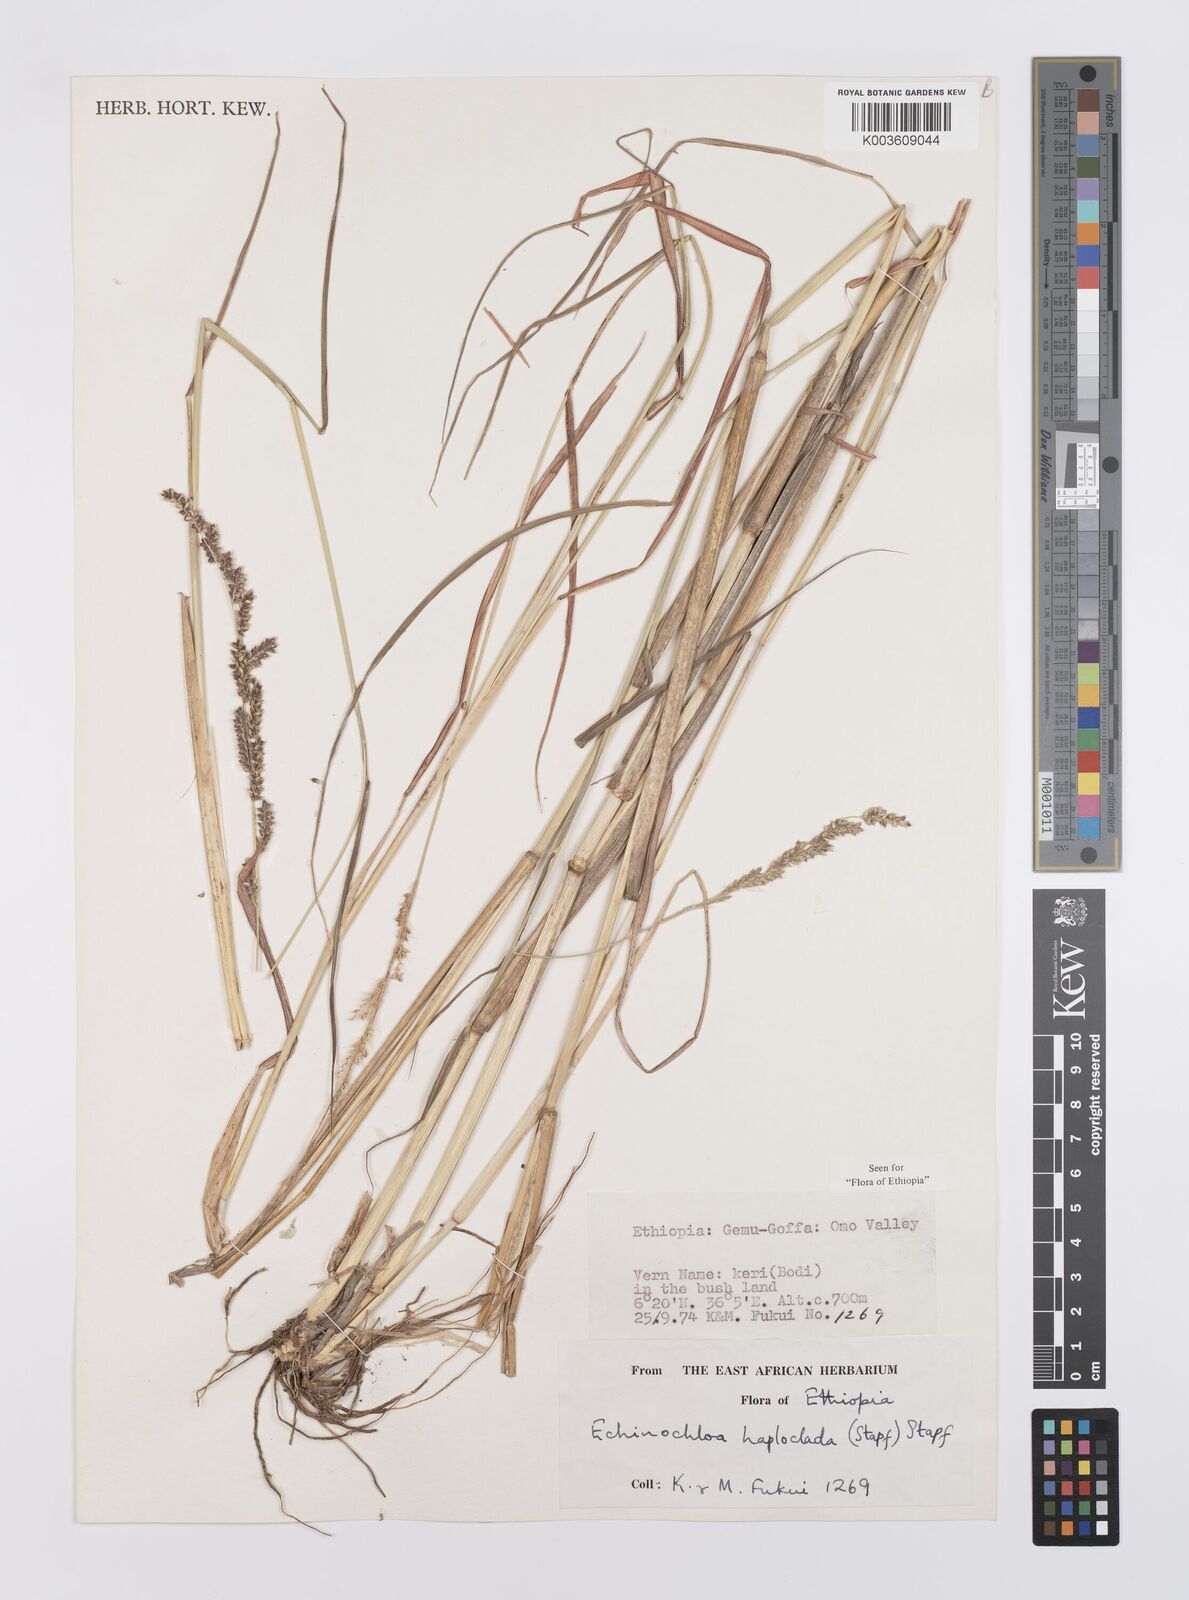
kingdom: Plantae
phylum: Tracheophyta
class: Liliopsida
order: Poales
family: Poaceae
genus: Echinochloa
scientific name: Echinochloa haploclada
